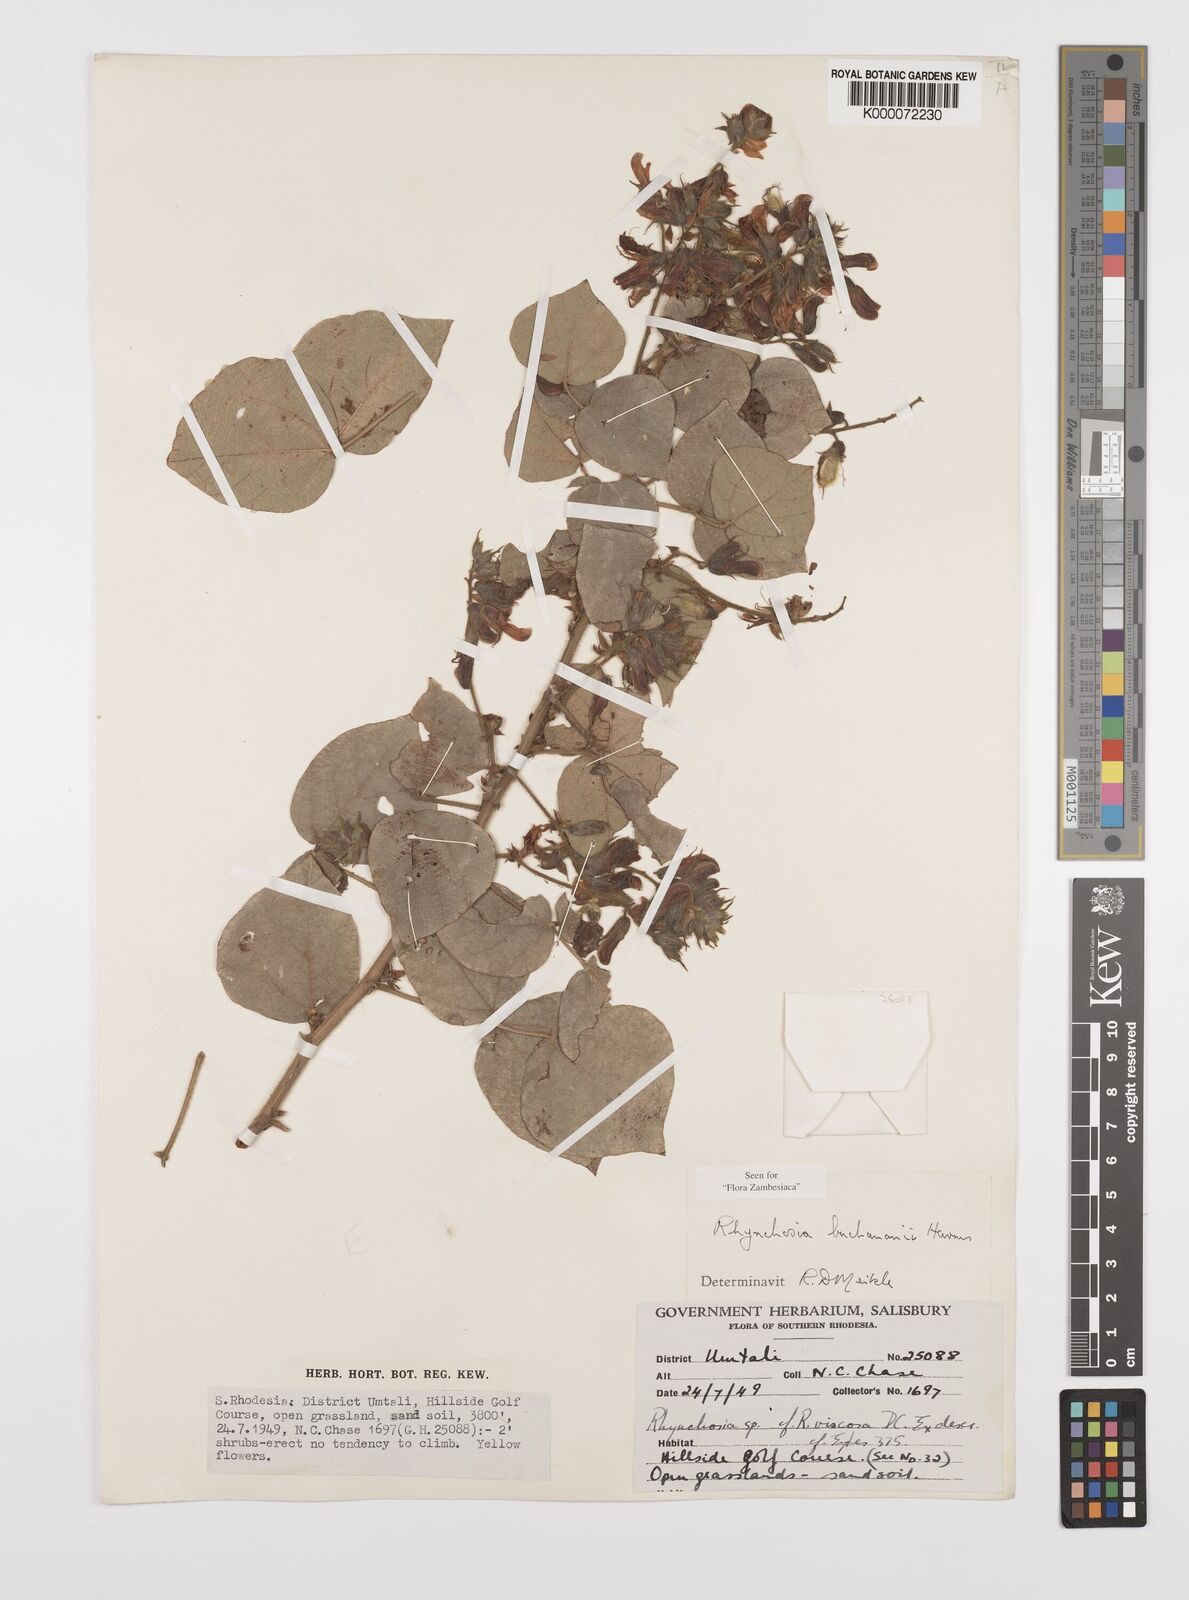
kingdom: Plantae
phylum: Tracheophyta
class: Magnoliopsida
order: Fabales
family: Fabaceae
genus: Rhynchosia
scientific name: Rhynchosia buchananii
